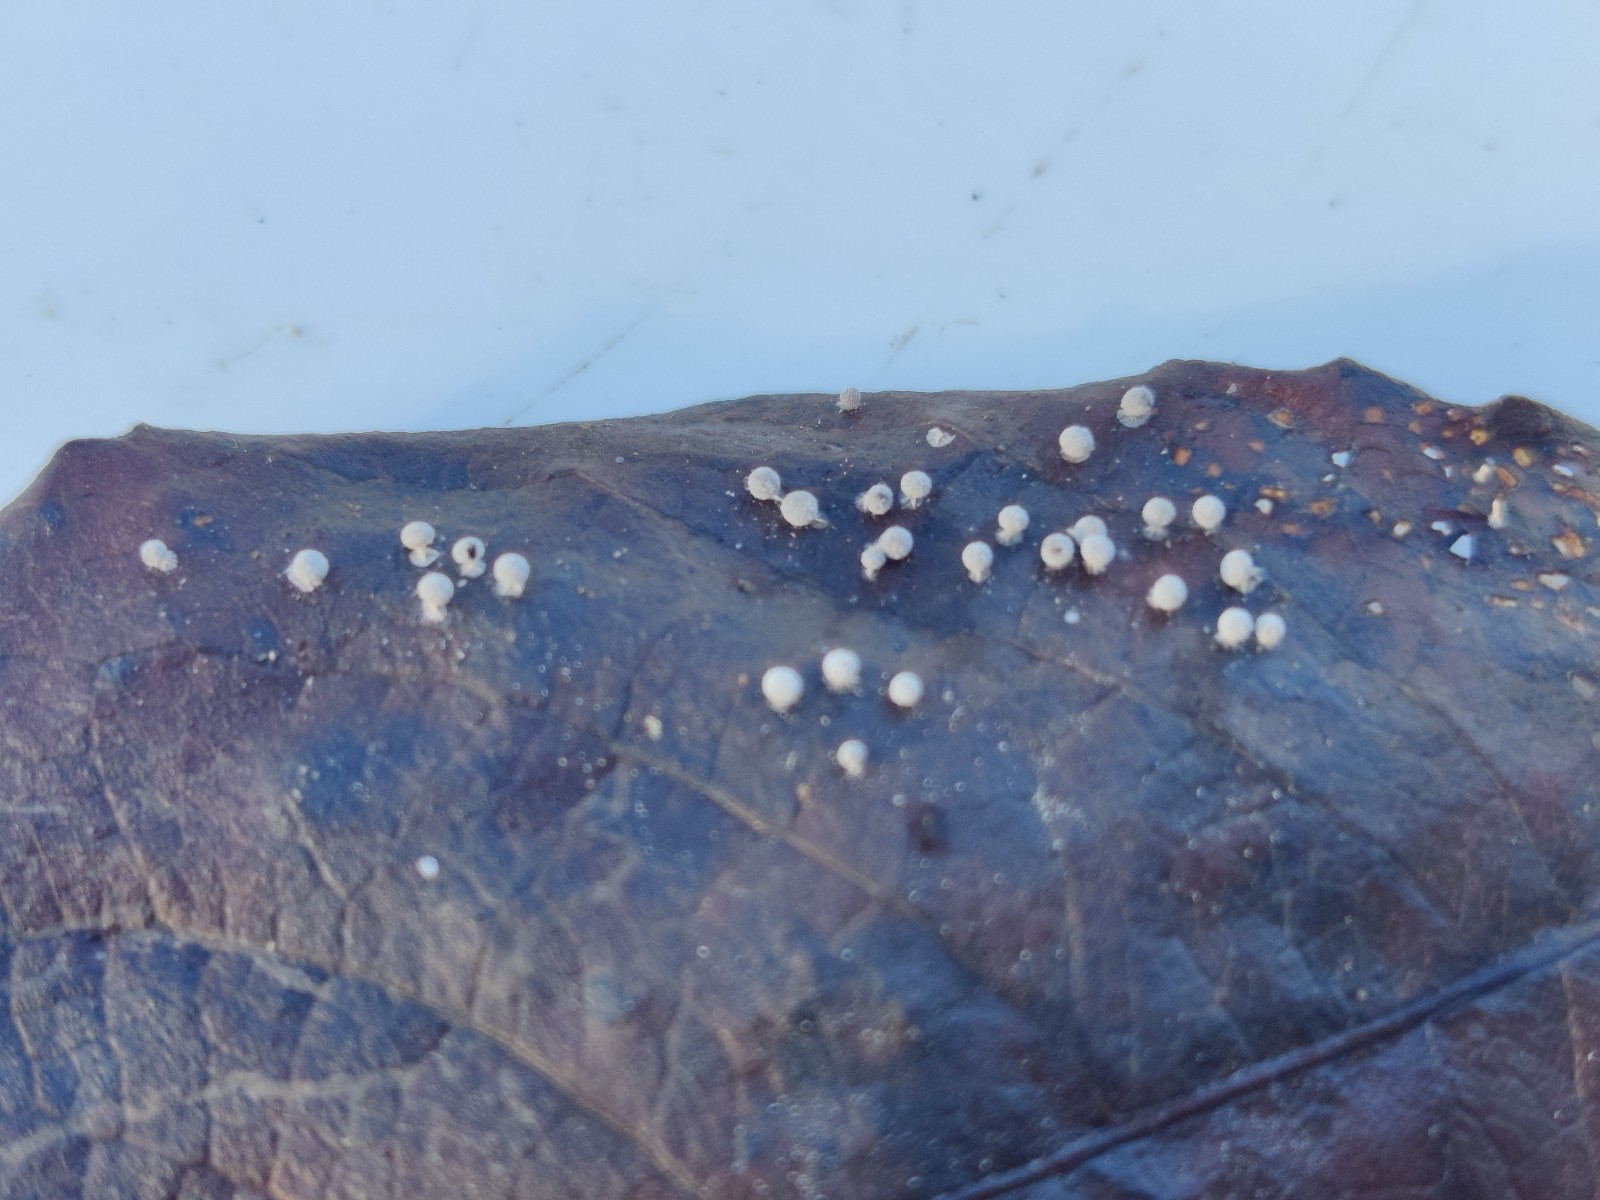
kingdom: Protozoa
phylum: Mycetozoa
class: Myxomycetes
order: Physarales
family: Didymiaceae
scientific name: Didymiaceae
